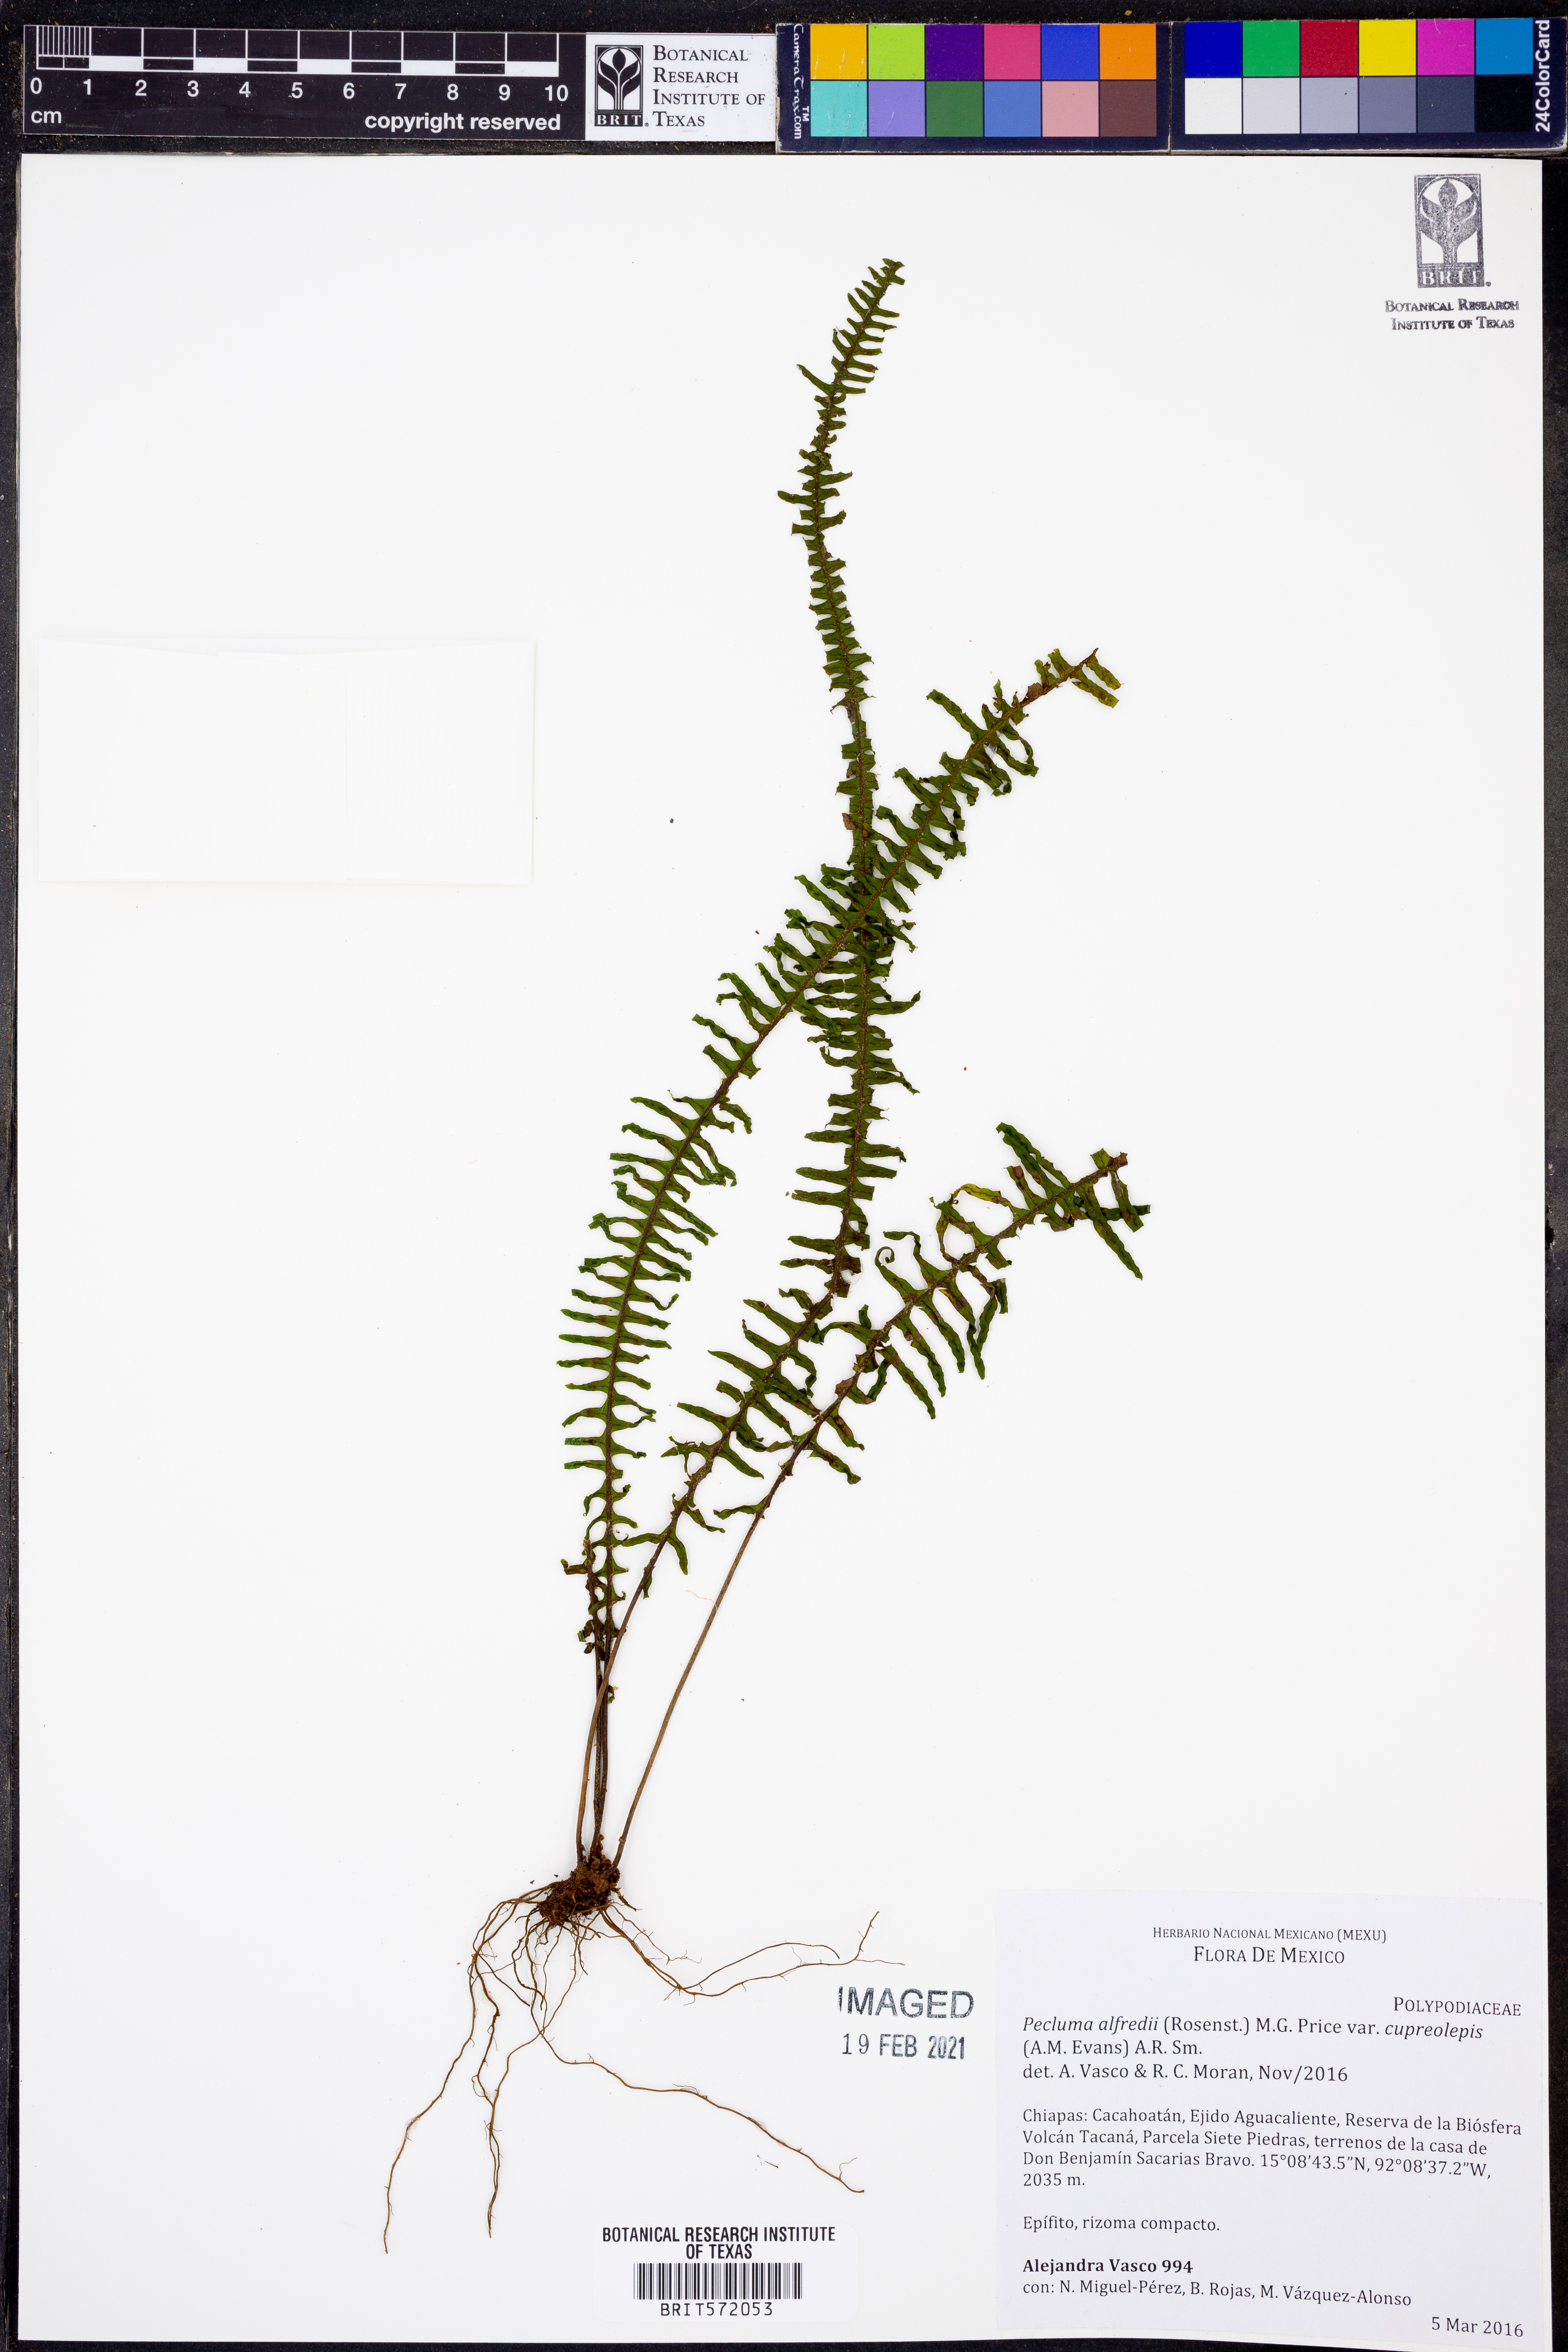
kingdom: Plantae
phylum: Tracheophyta
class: Polypodiopsida
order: Polypodiales
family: Polypodiaceae
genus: Pecluma
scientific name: Pecluma alfredii
